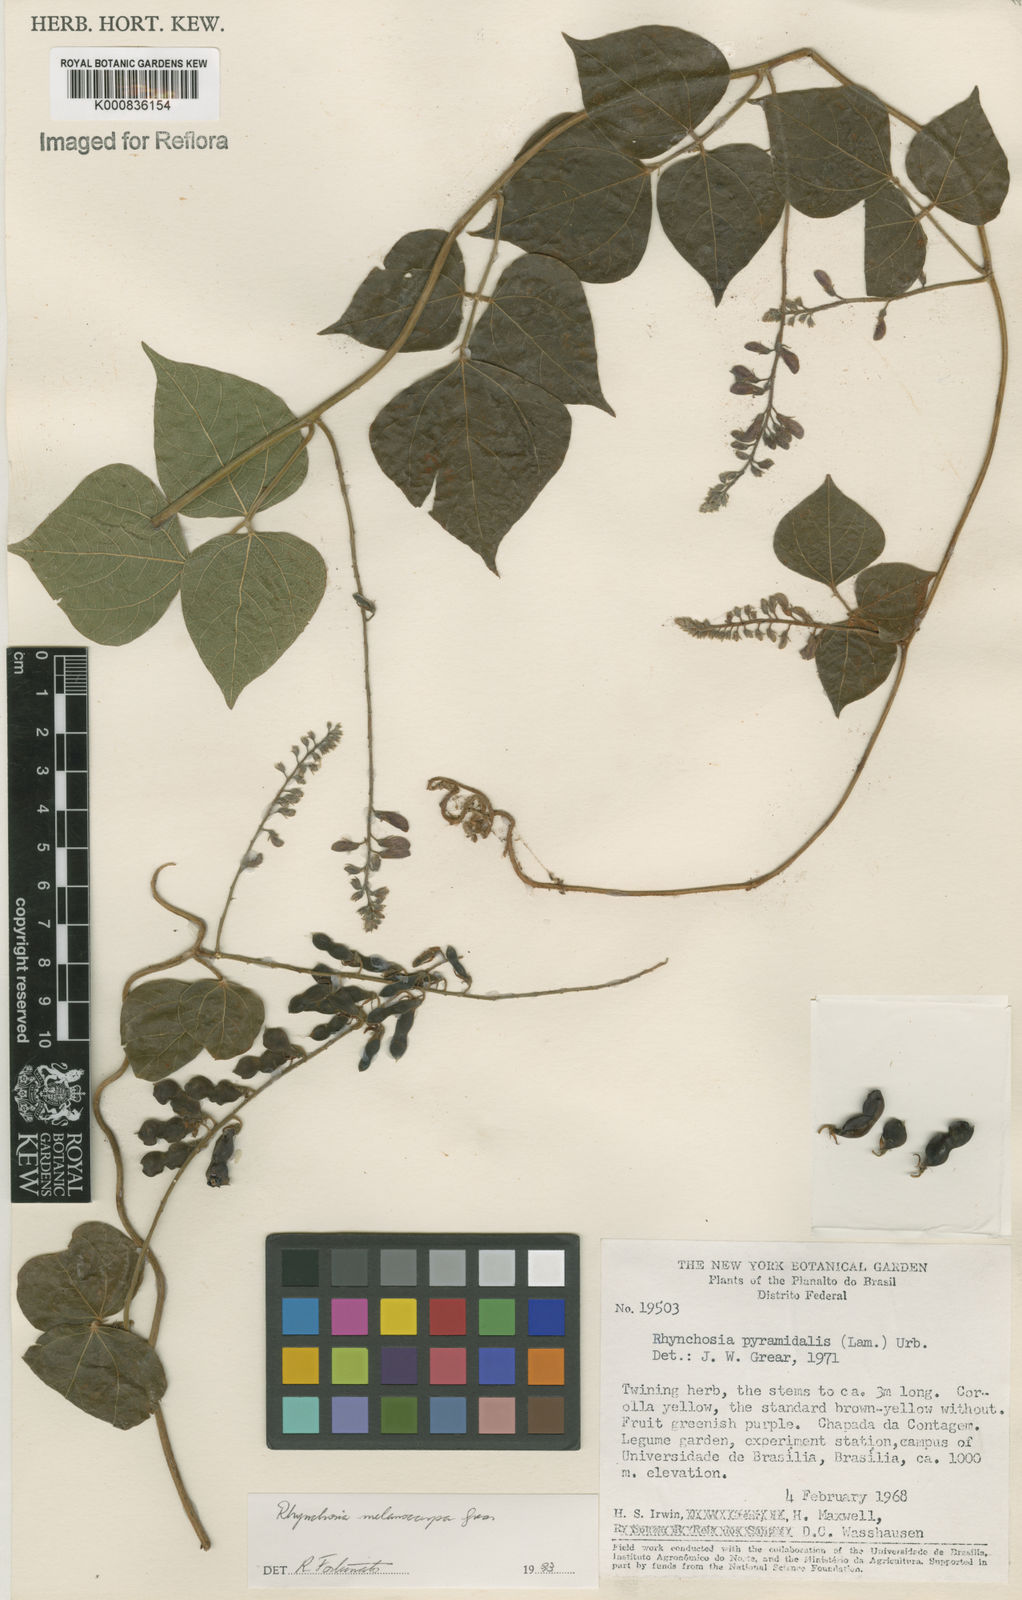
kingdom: Plantae
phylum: Tracheophyta
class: Magnoliopsida
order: Fabales
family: Fabaceae
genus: Rhynchosia
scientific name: Rhynchosia melanocarpa
